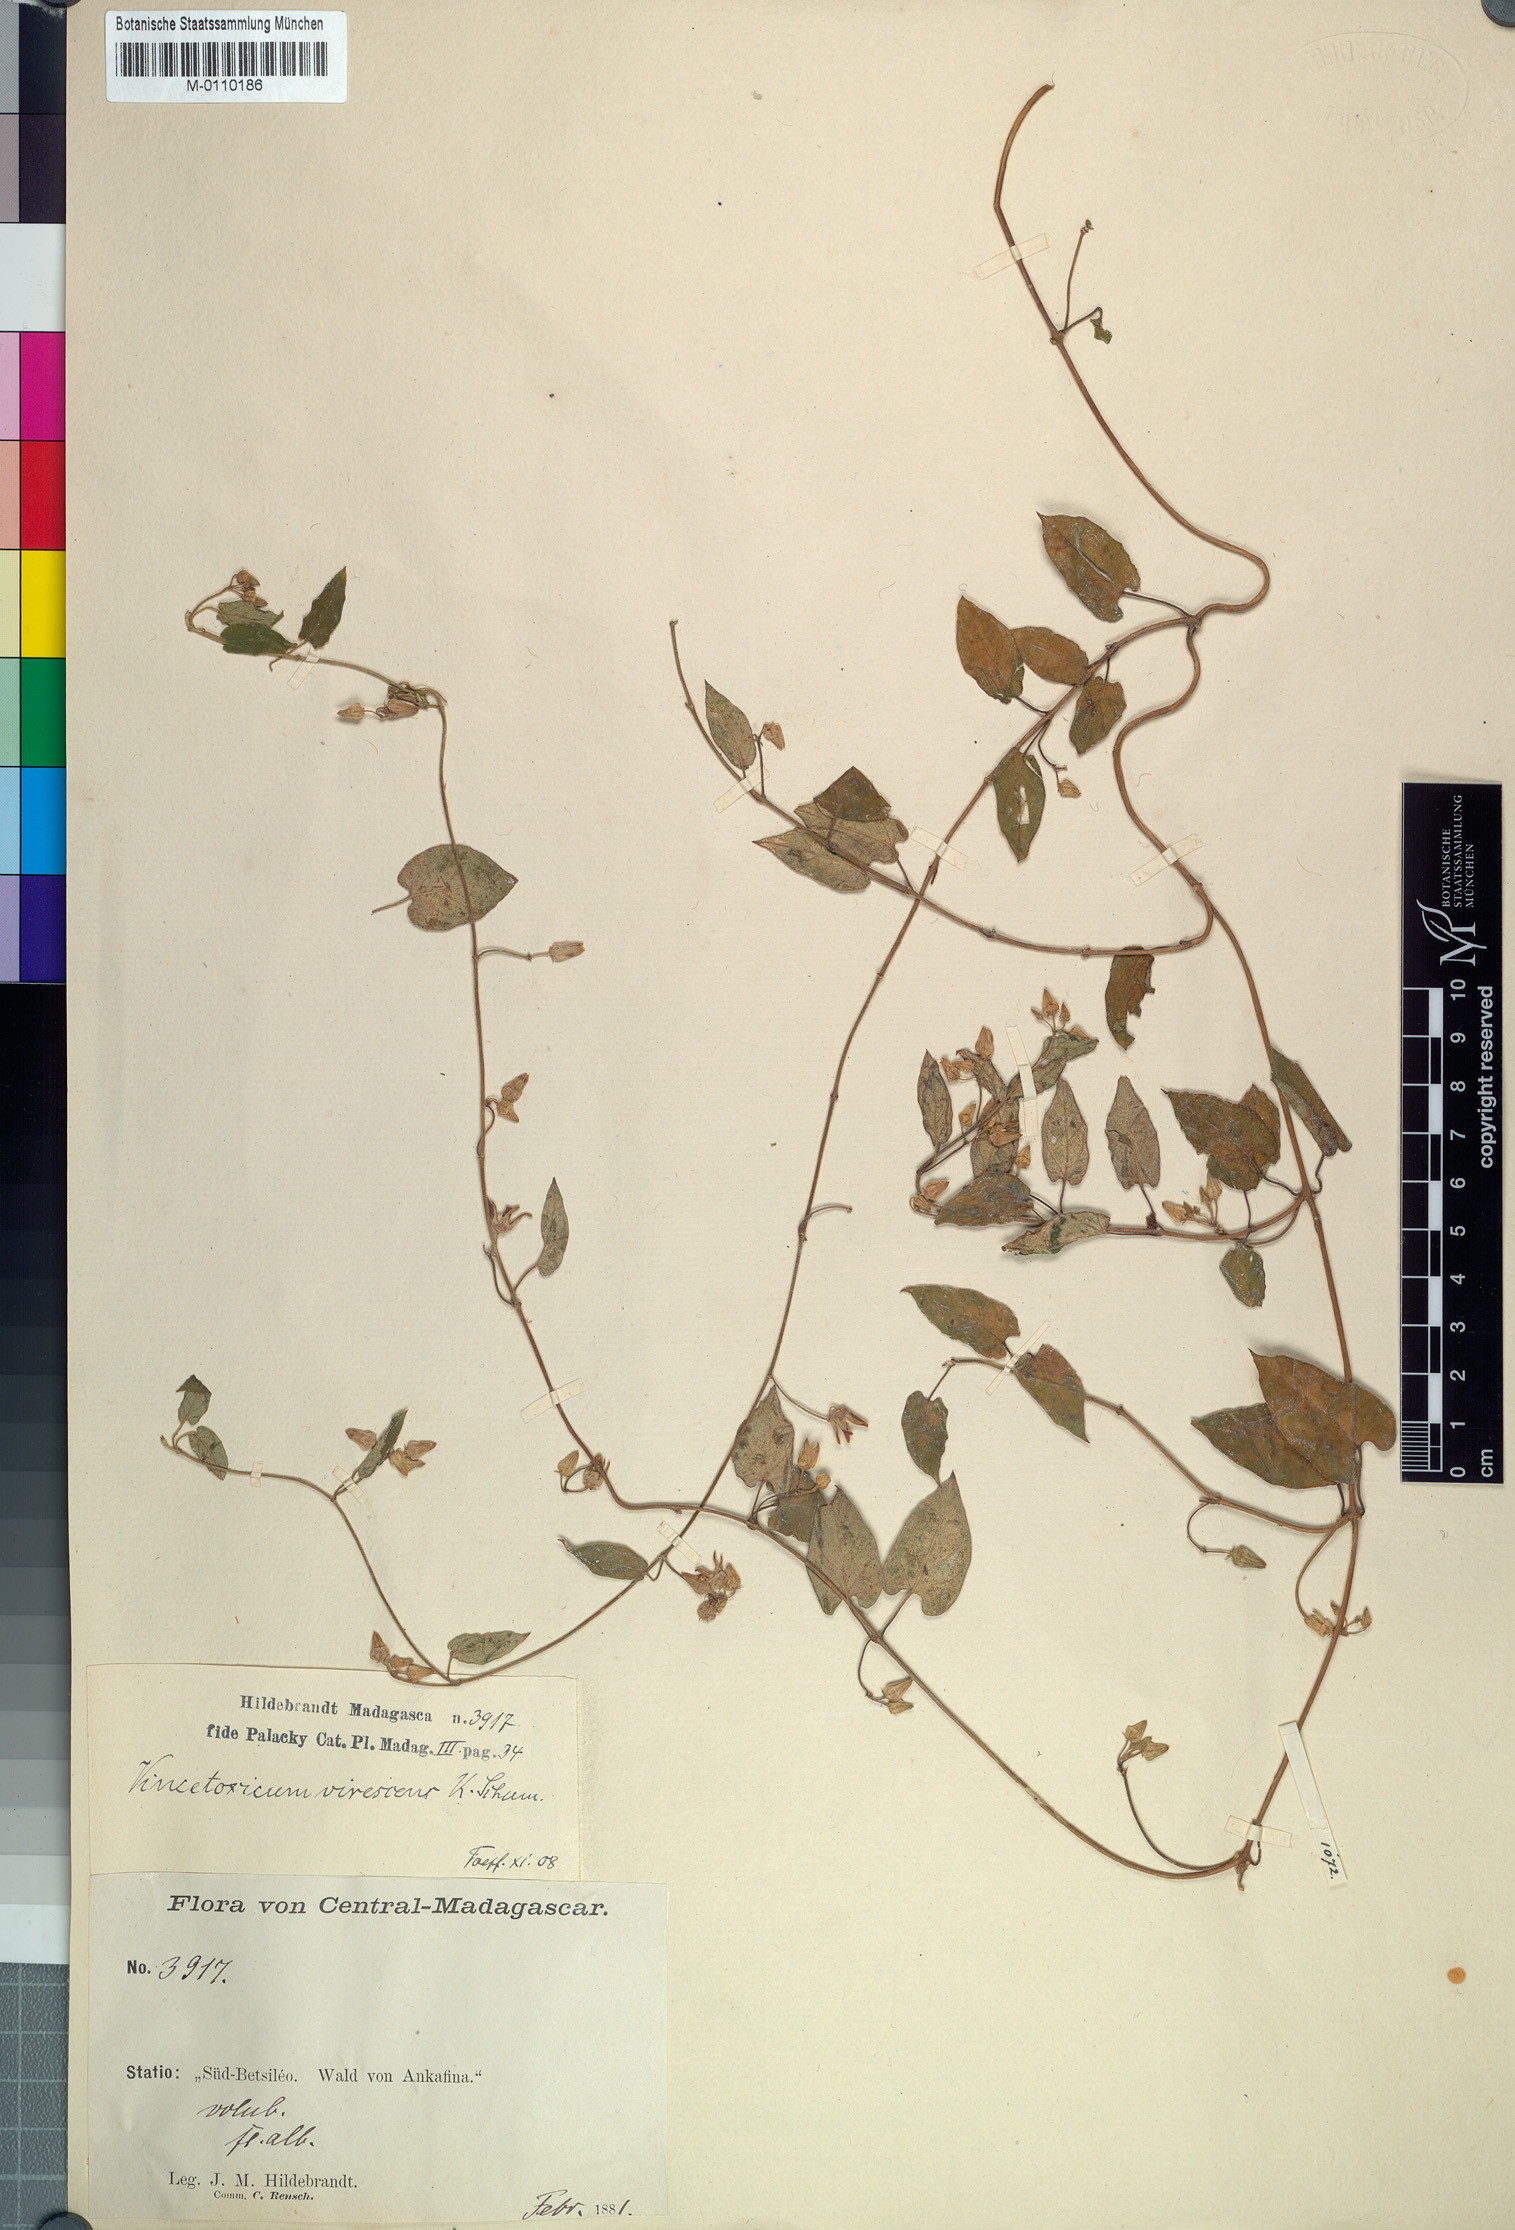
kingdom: Plantae
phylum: Tracheophyta
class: Magnoliopsida
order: Gentianales
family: Apocynaceae
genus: Cynanchum
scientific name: Cynanchum leucanthum
